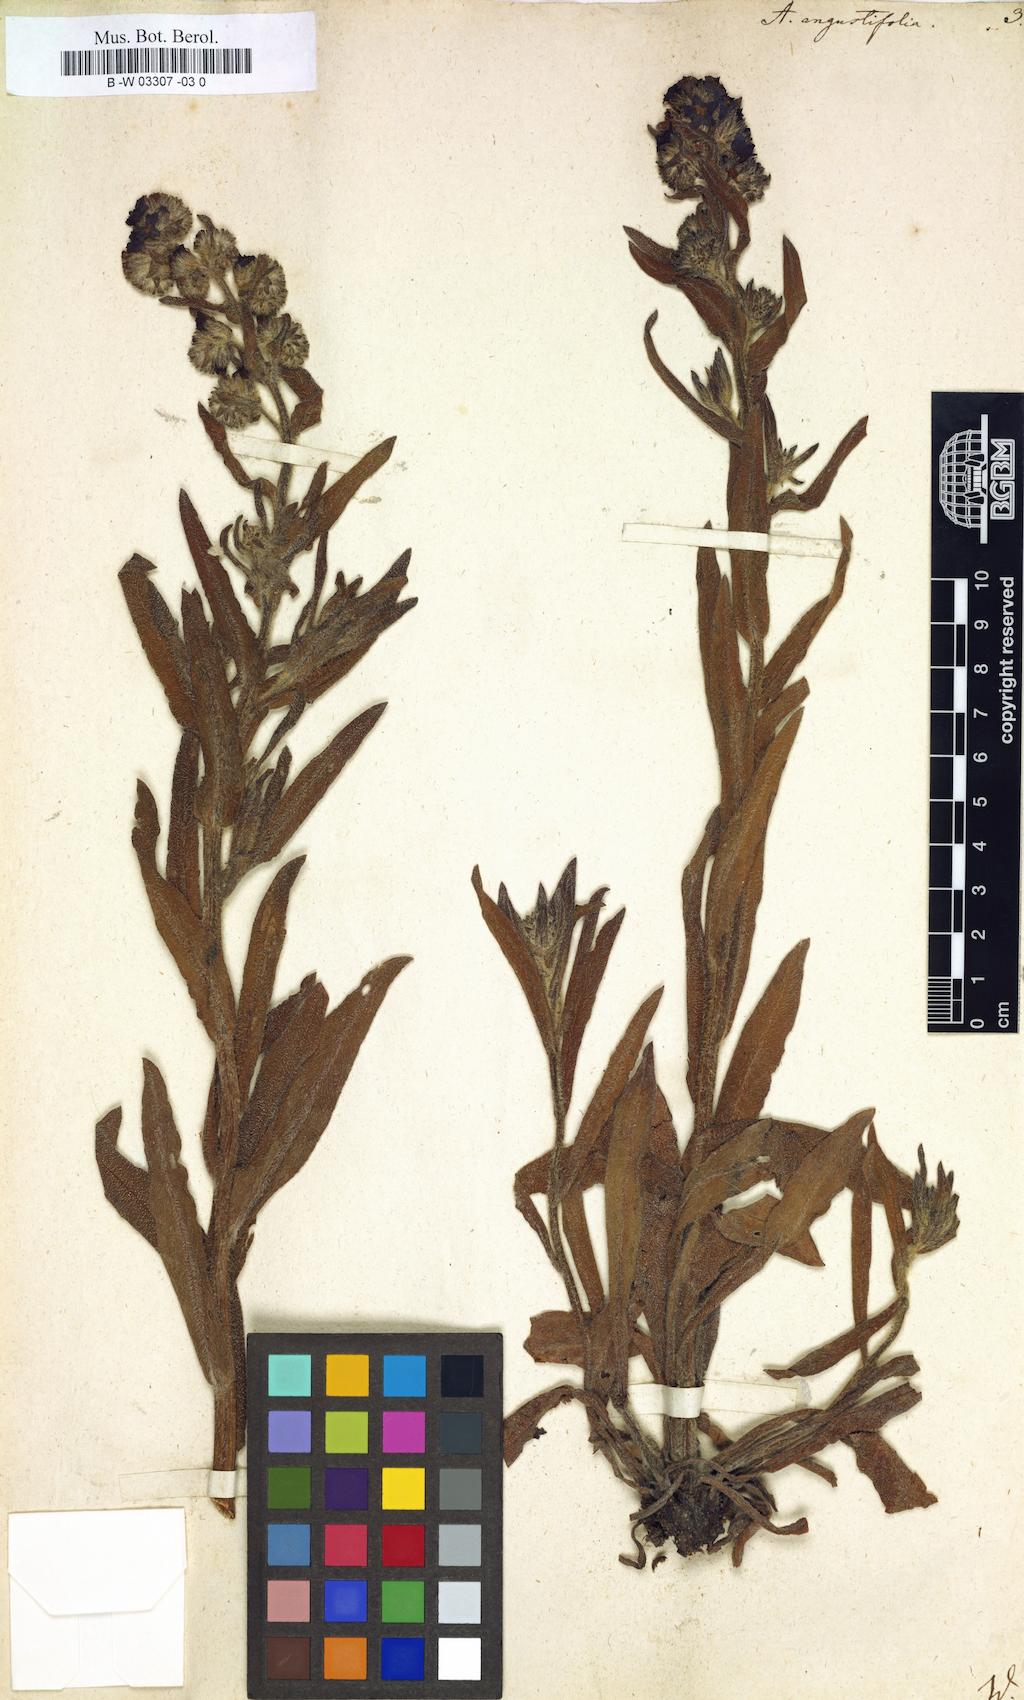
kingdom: Plantae
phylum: Tracheophyta
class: Magnoliopsida
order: Boraginales
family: Boraginaceae
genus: Anchusa
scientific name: Anchusa officinalis
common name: Alkanet
